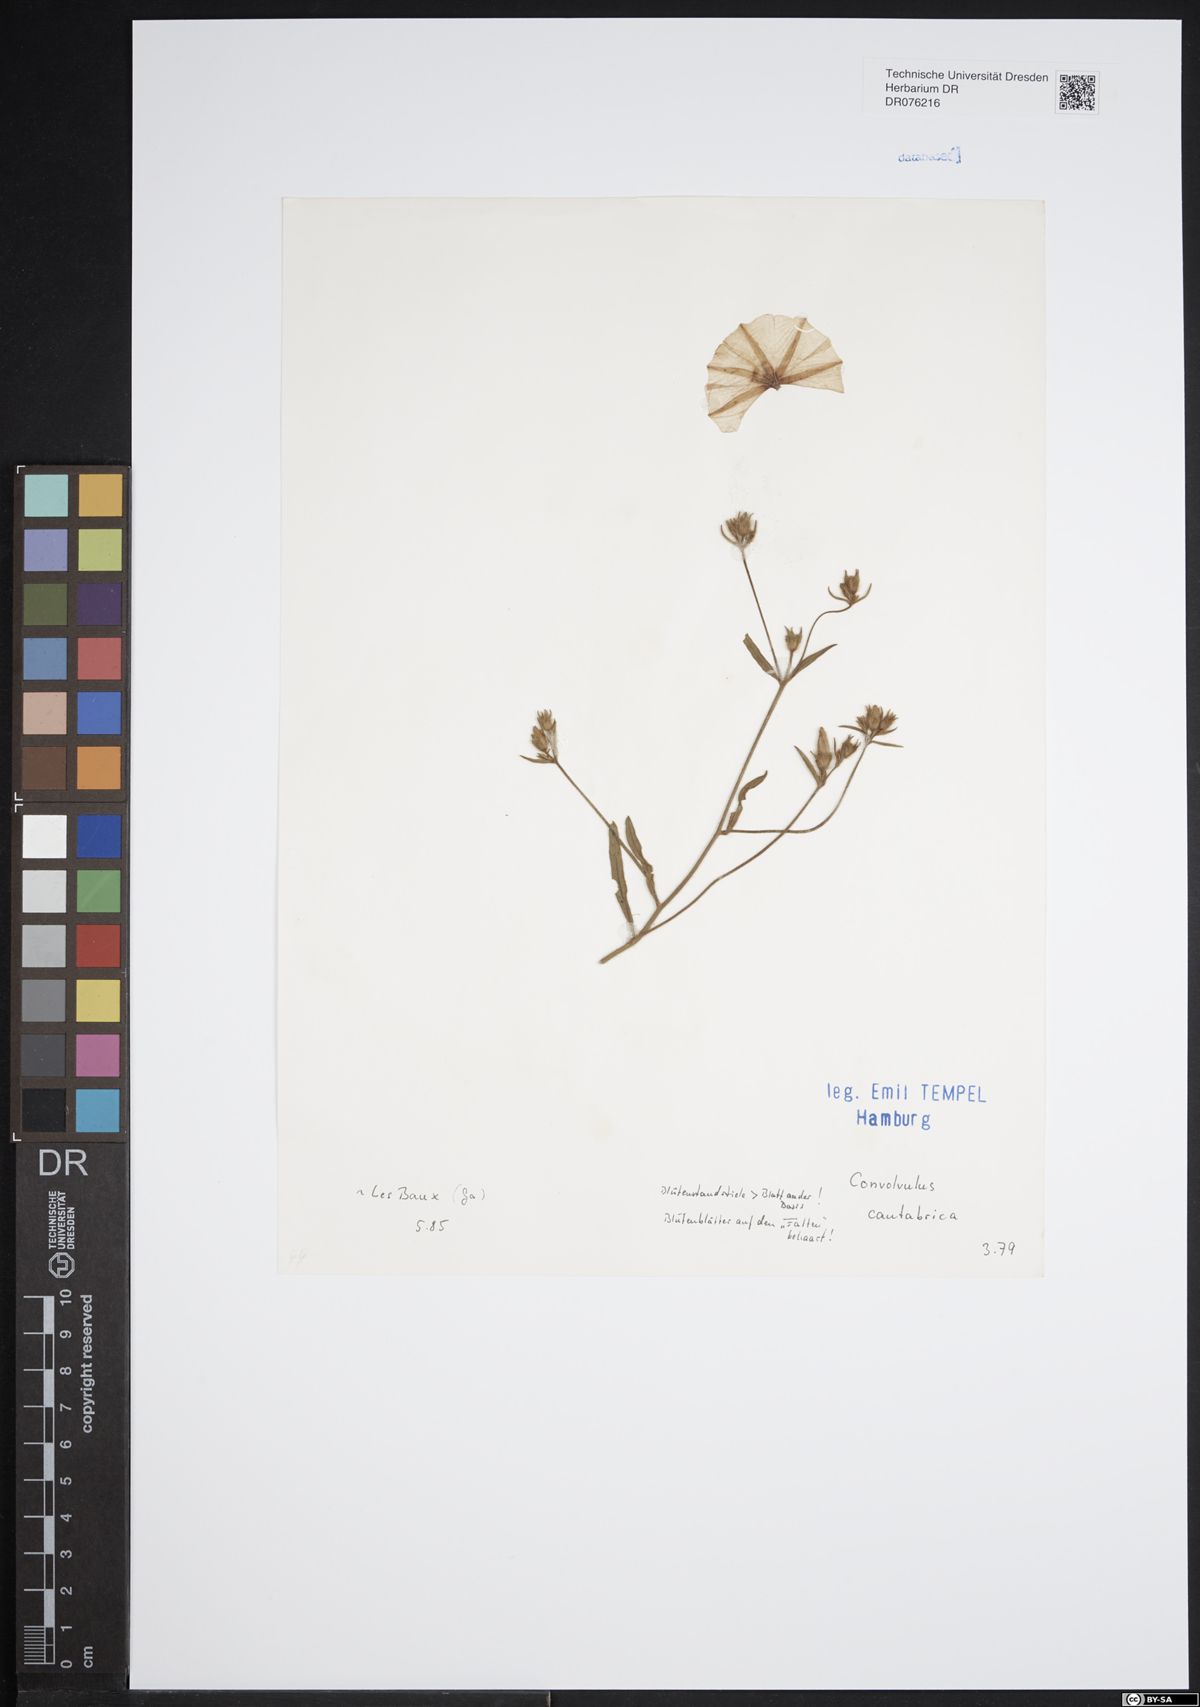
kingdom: Plantae
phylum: Tracheophyta
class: Magnoliopsida
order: Solanales
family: Convolvulaceae
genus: Convolvulus
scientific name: Convolvulus cantabrica
